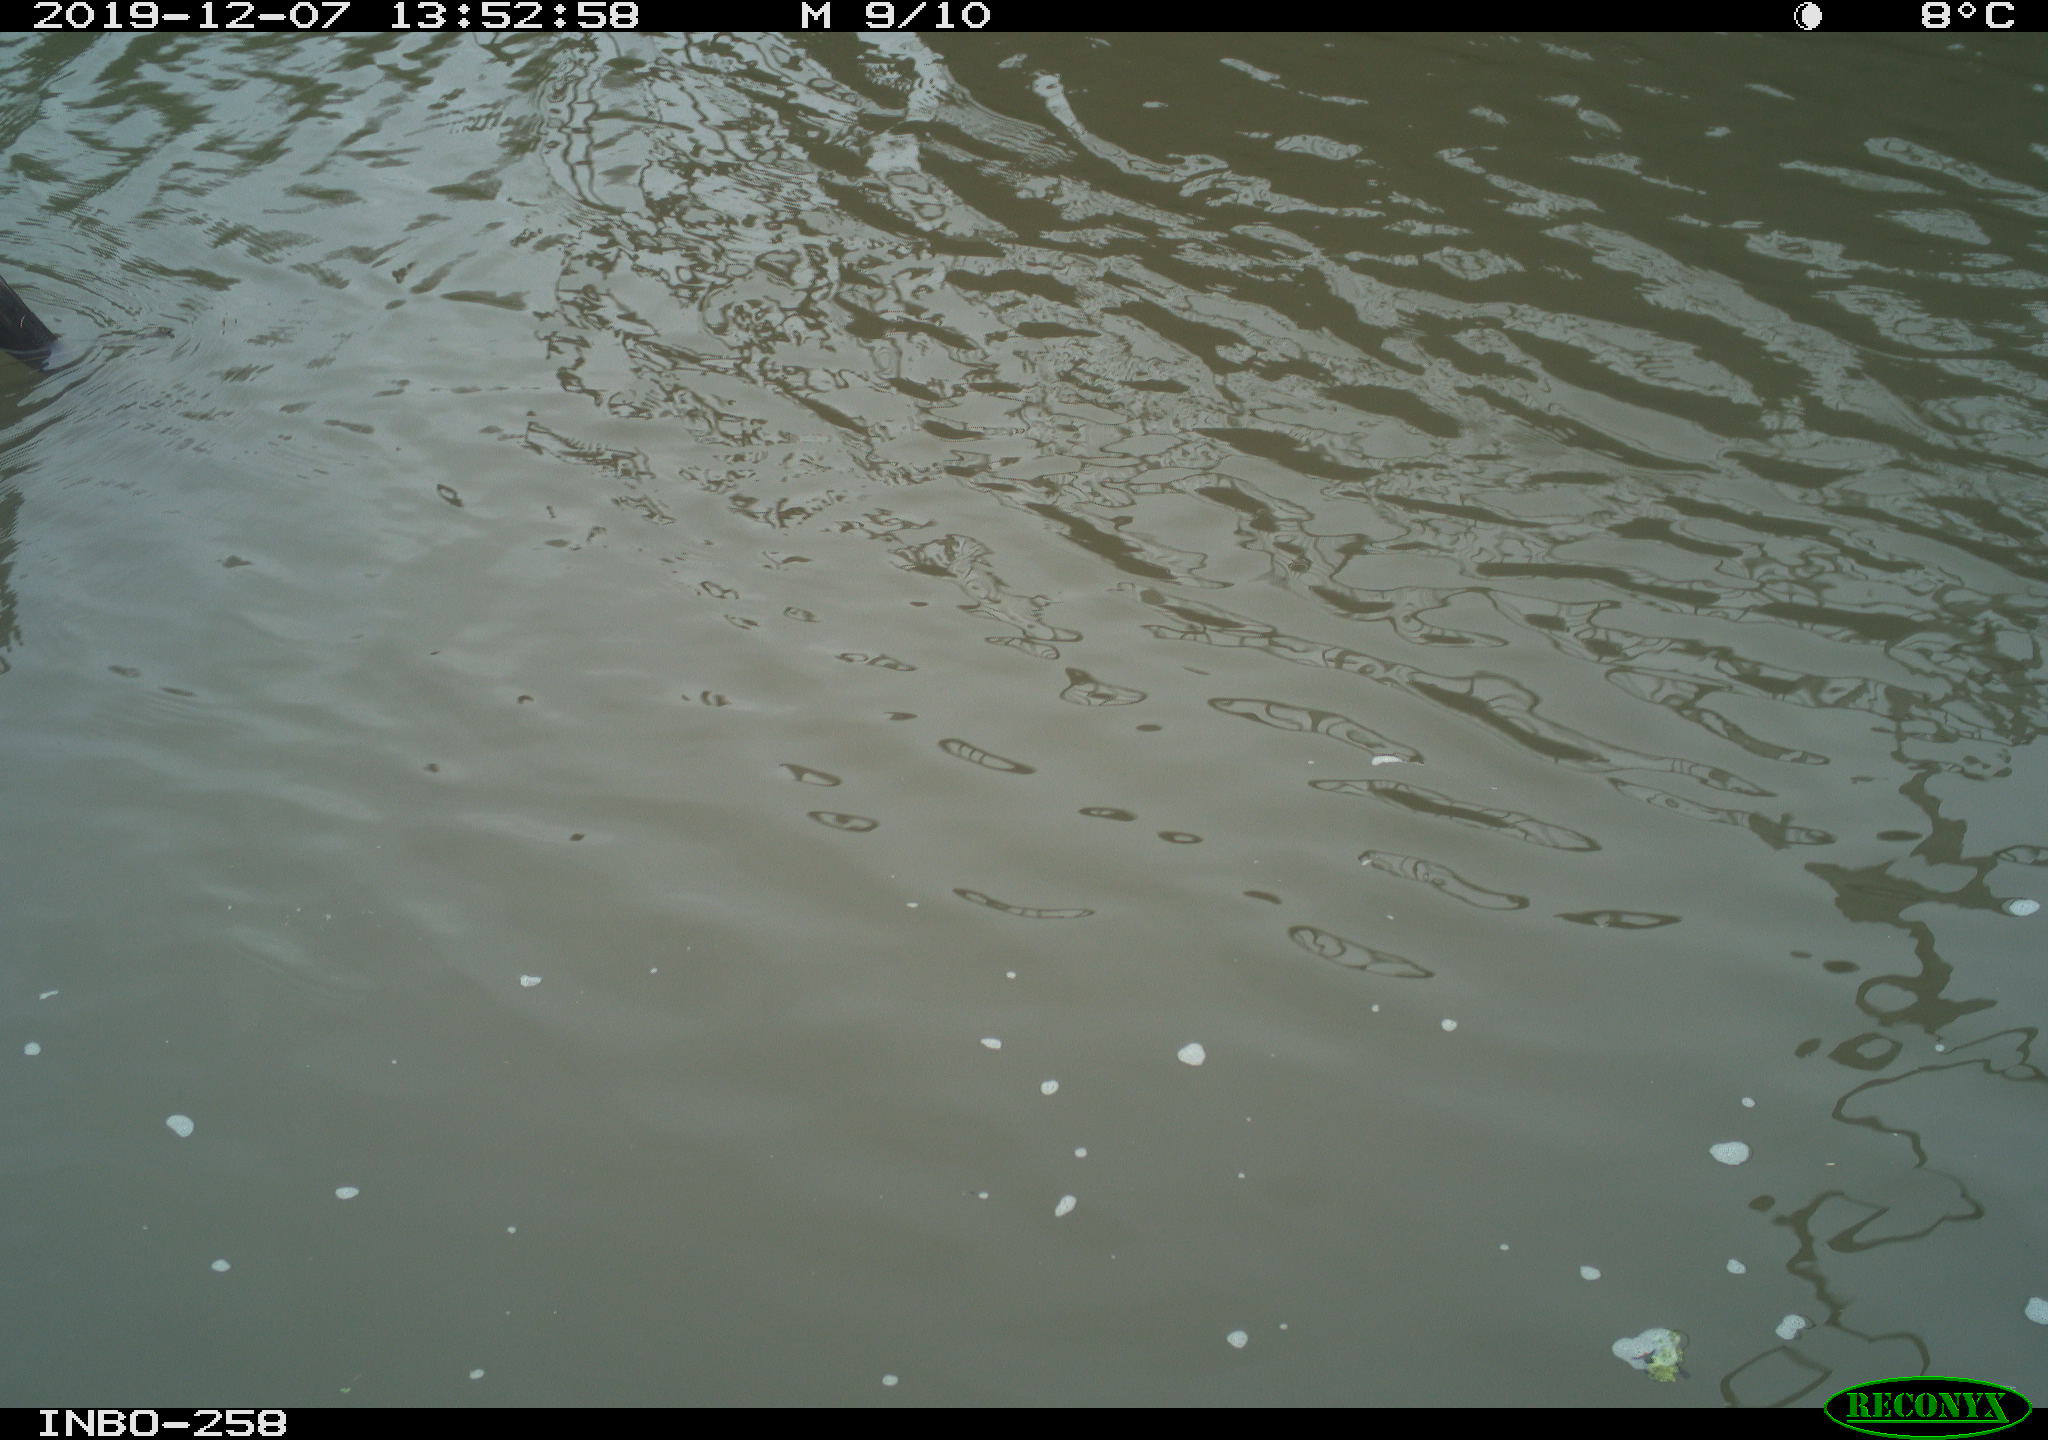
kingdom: Animalia
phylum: Chordata
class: Aves
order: Gruiformes
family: Rallidae
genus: Gallinula
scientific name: Gallinula chloropus
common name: Common moorhen
